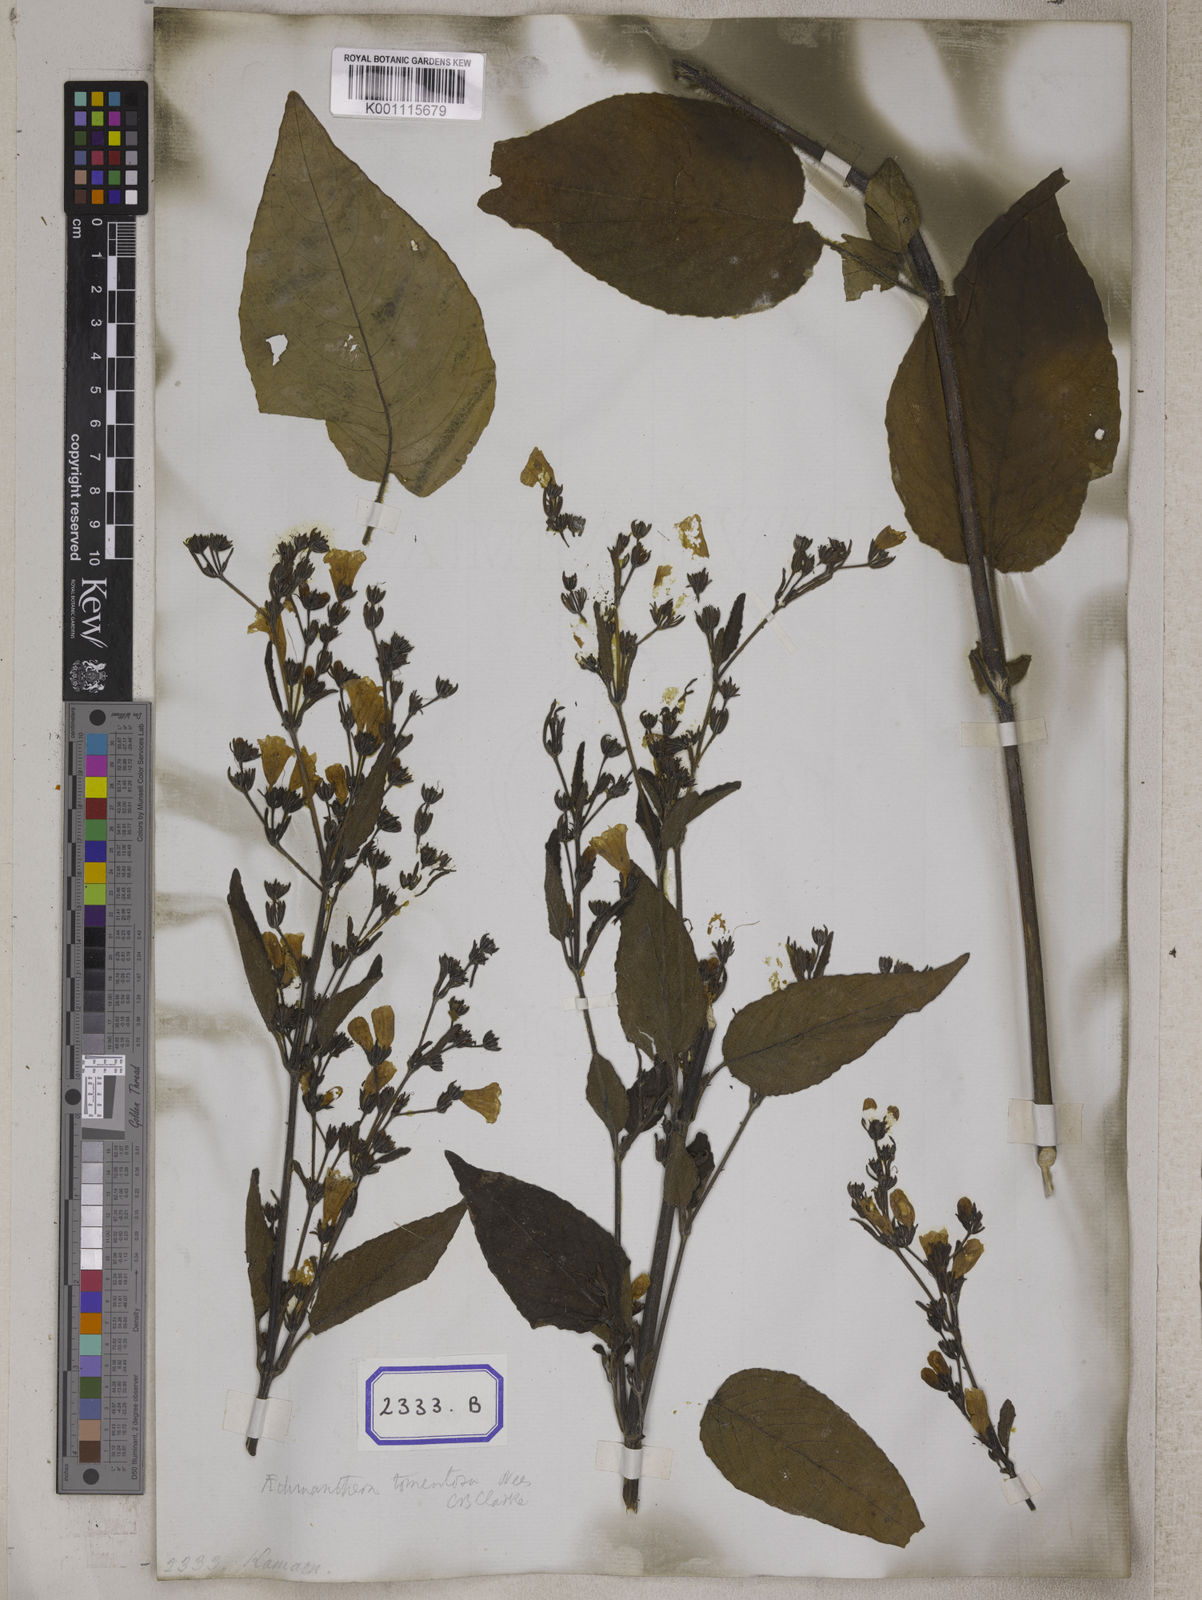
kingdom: Plantae
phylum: Tracheophyta
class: Magnoliopsida
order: Lamiales
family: Acanthaceae
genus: Strobilanthes
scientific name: Strobilanthes tomentosa
